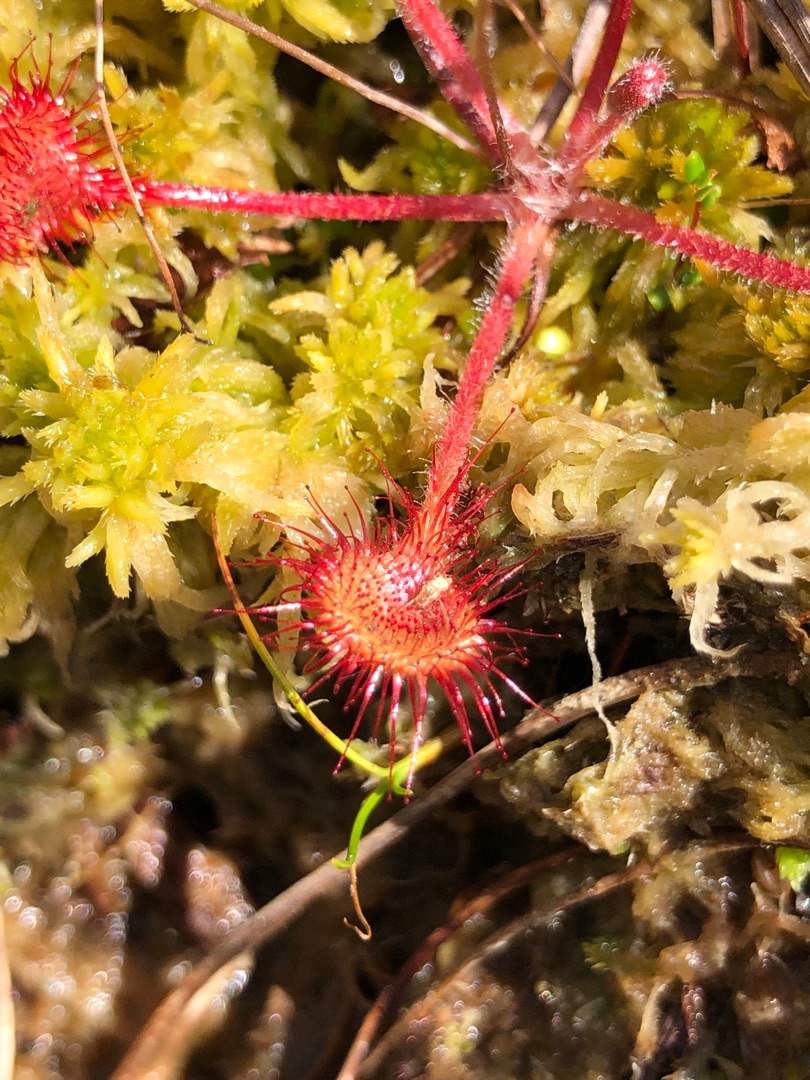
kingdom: Plantae
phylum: Tracheophyta
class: Magnoliopsida
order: Caryophyllales
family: Droseraceae
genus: Drosera
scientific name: Drosera rotundifolia
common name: Rundbladet soldug
